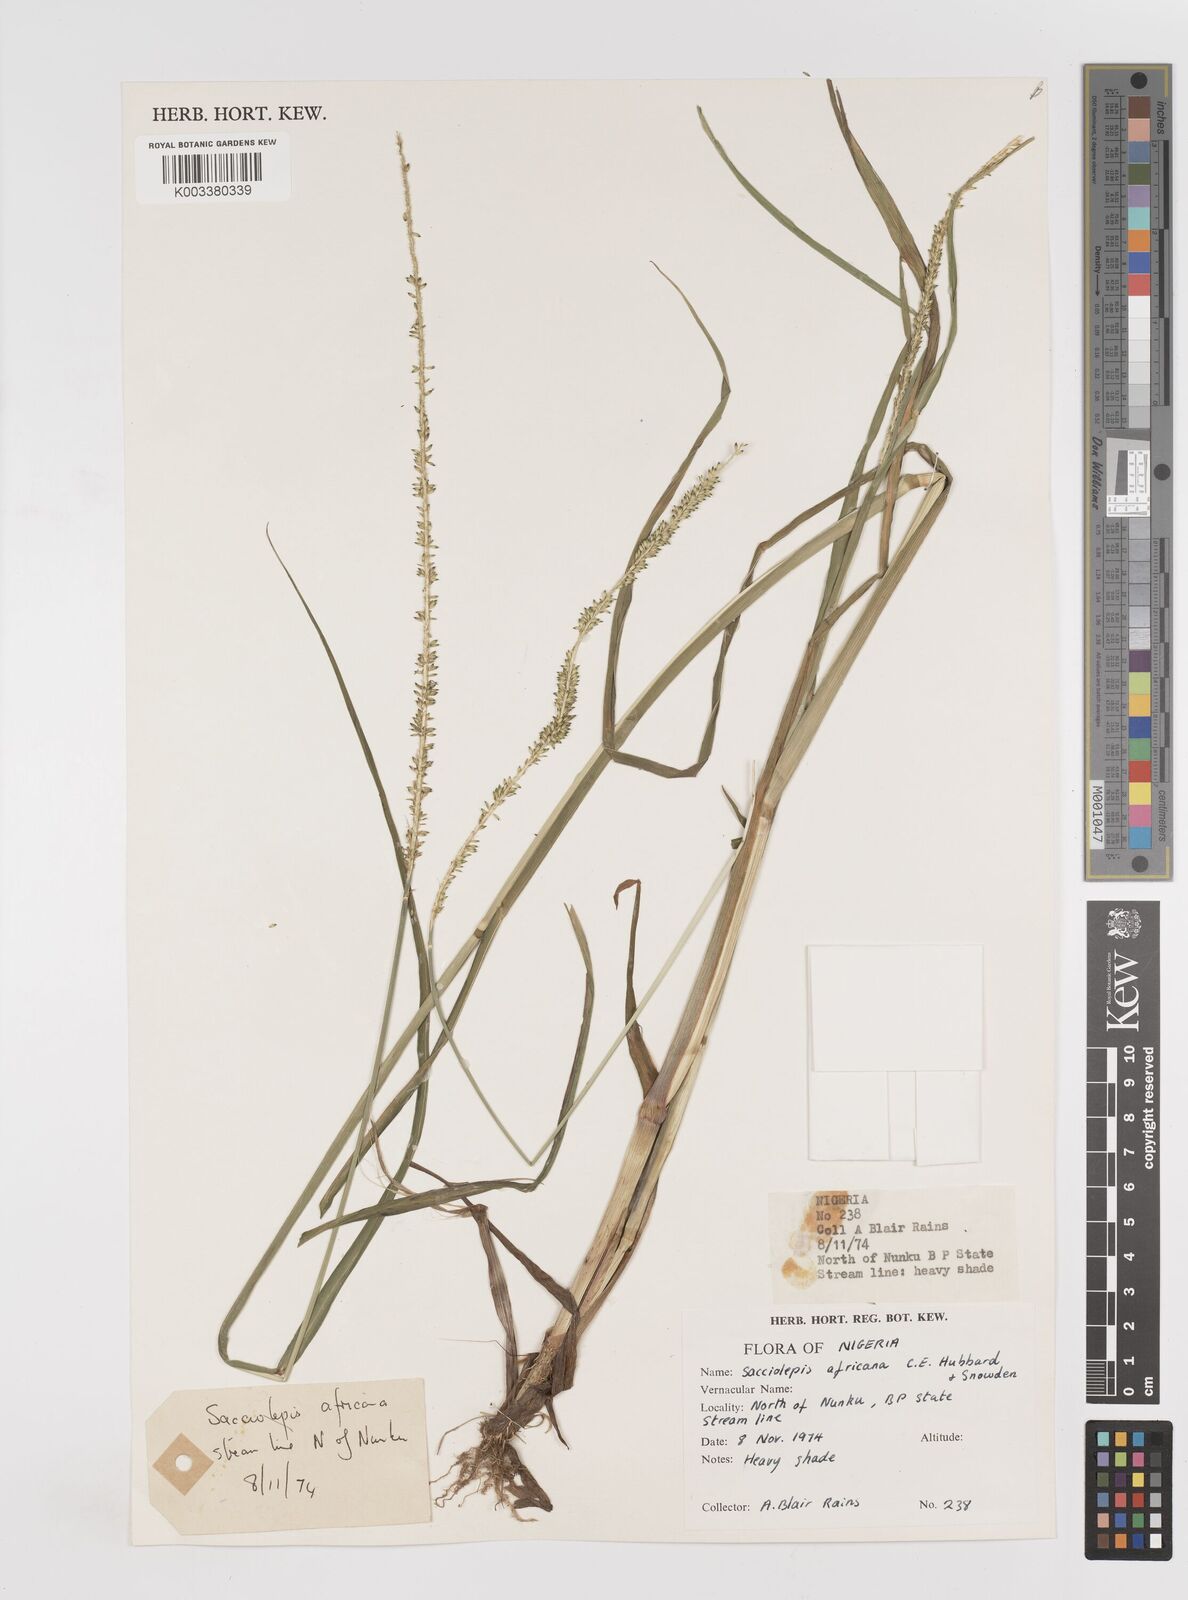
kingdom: Plantae
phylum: Tracheophyta
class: Liliopsida
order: Poales
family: Poaceae
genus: Sacciolepis
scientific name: Sacciolepis africana
